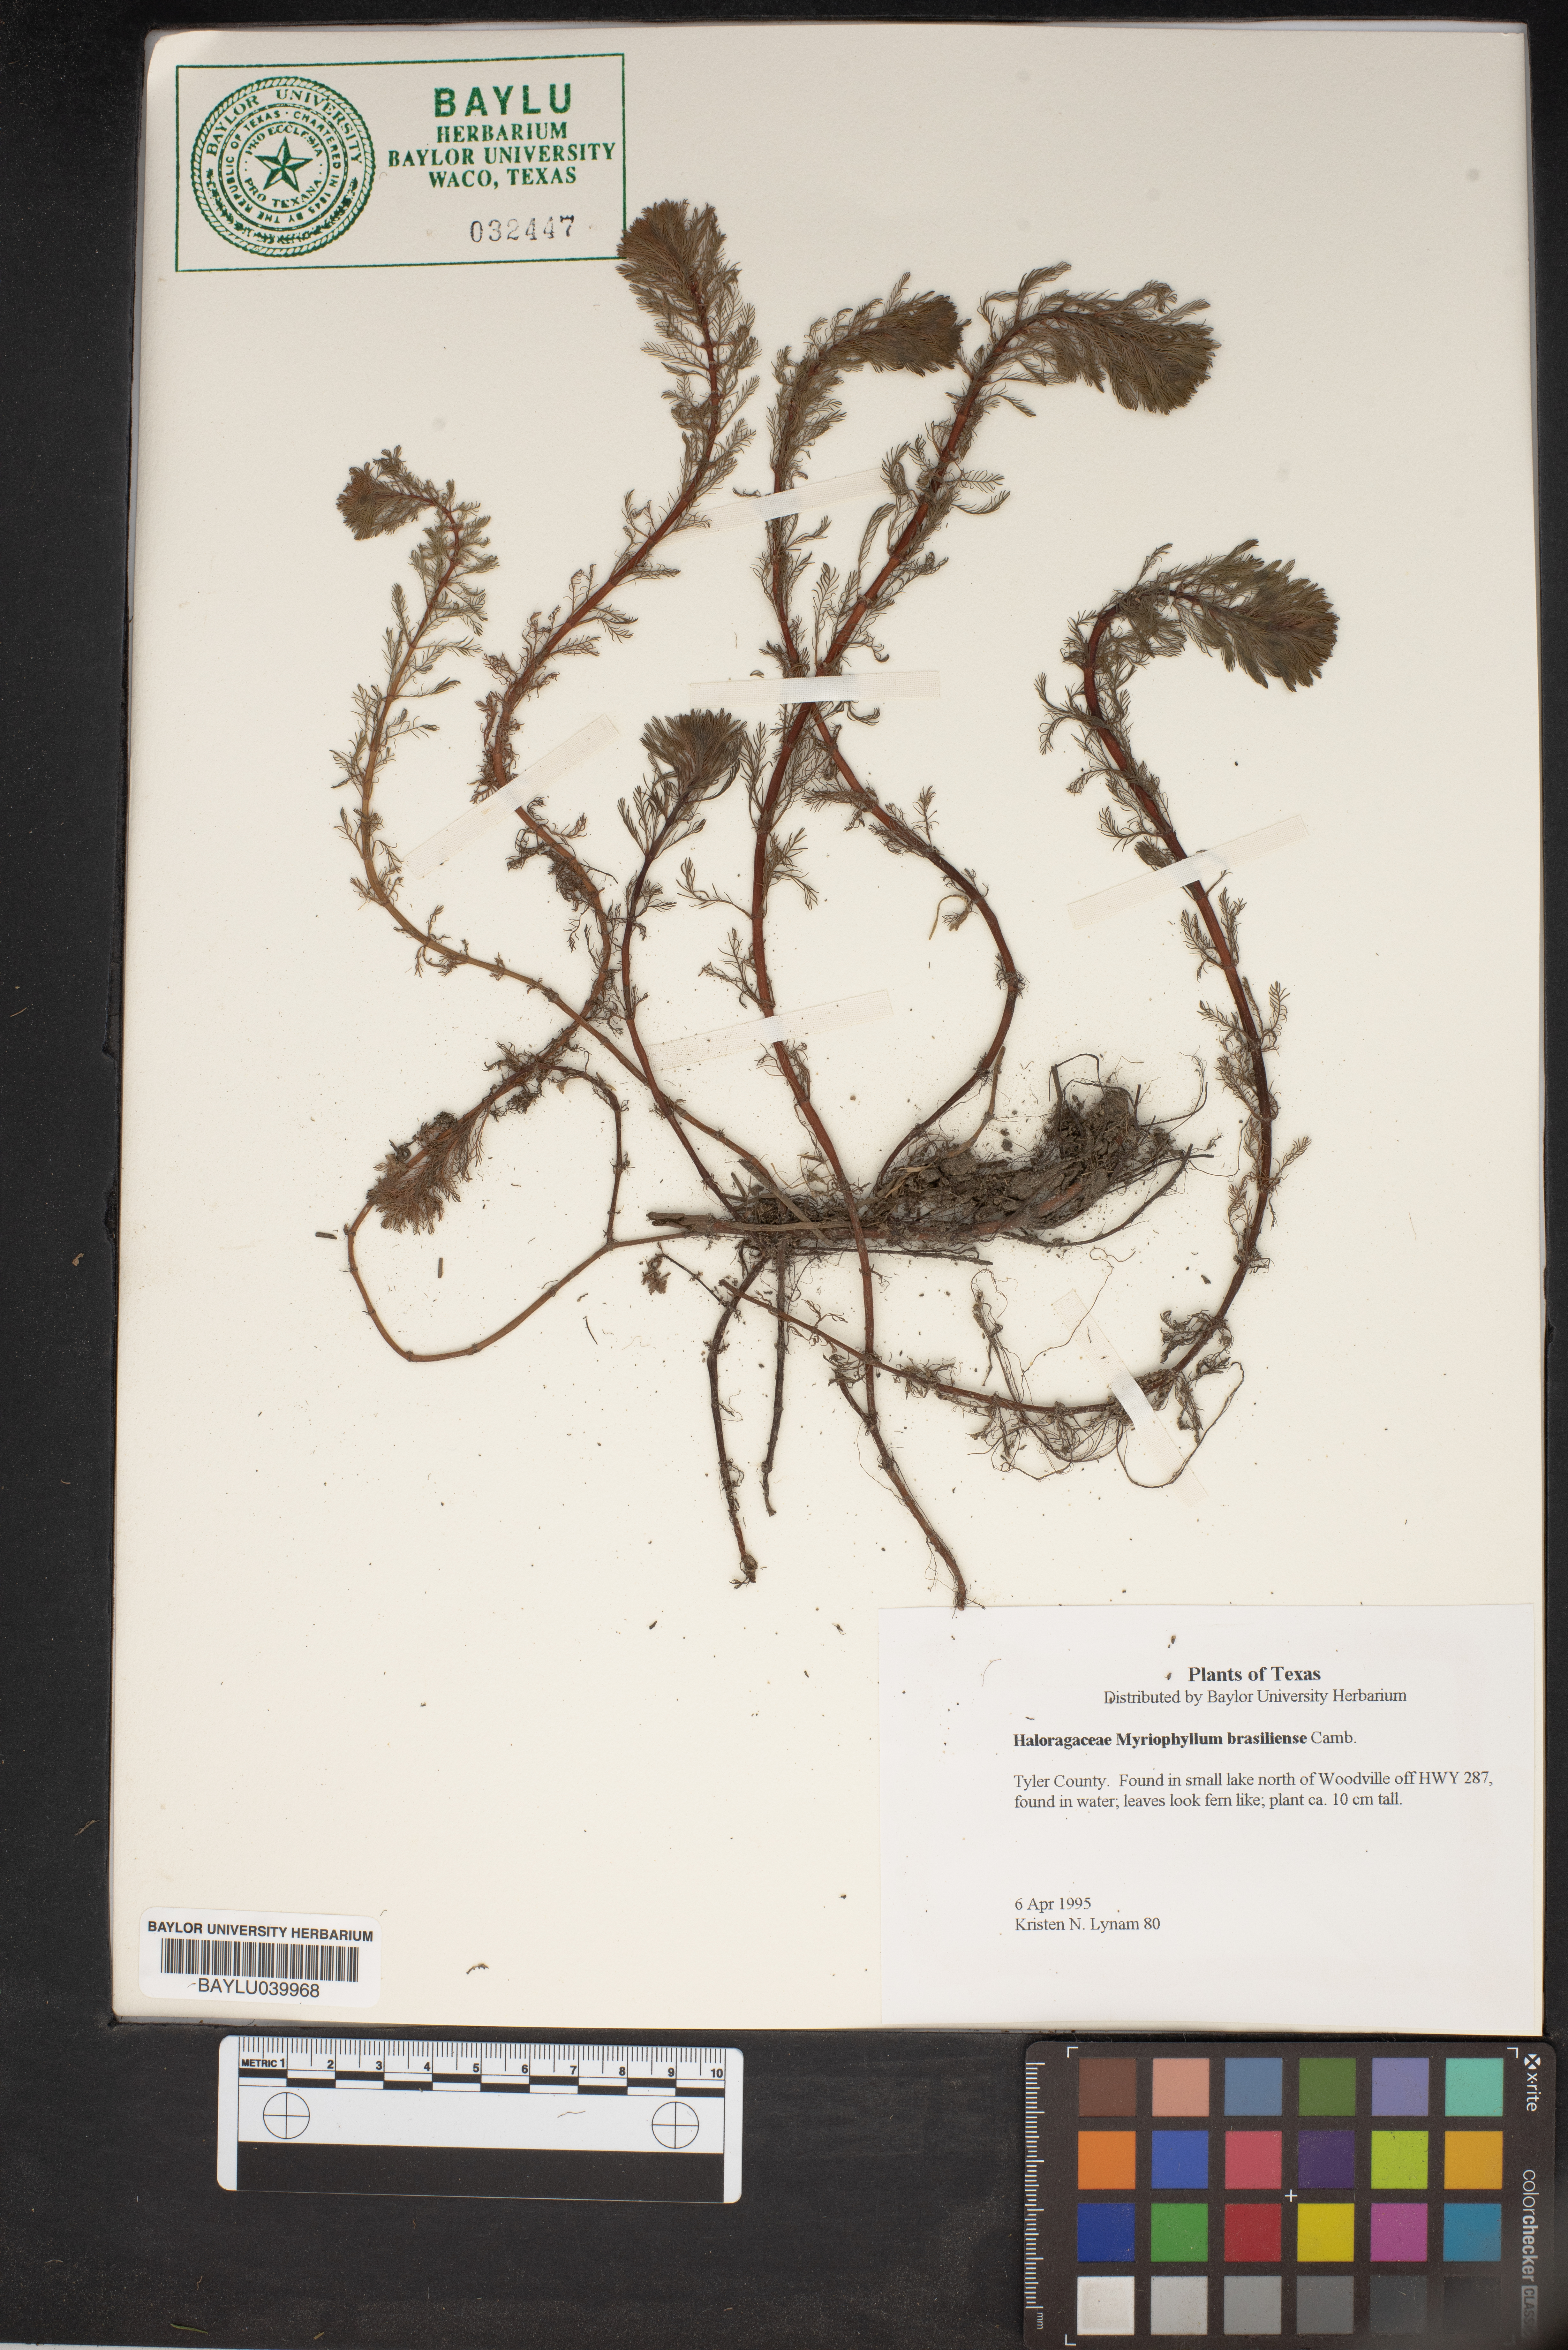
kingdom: Plantae
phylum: Tracheophyta
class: Magnoliopsida
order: Saxifragales
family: Haloragaceae
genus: Myriophyllum
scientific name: Myriophyllum aquaticum
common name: Parrot's feather
